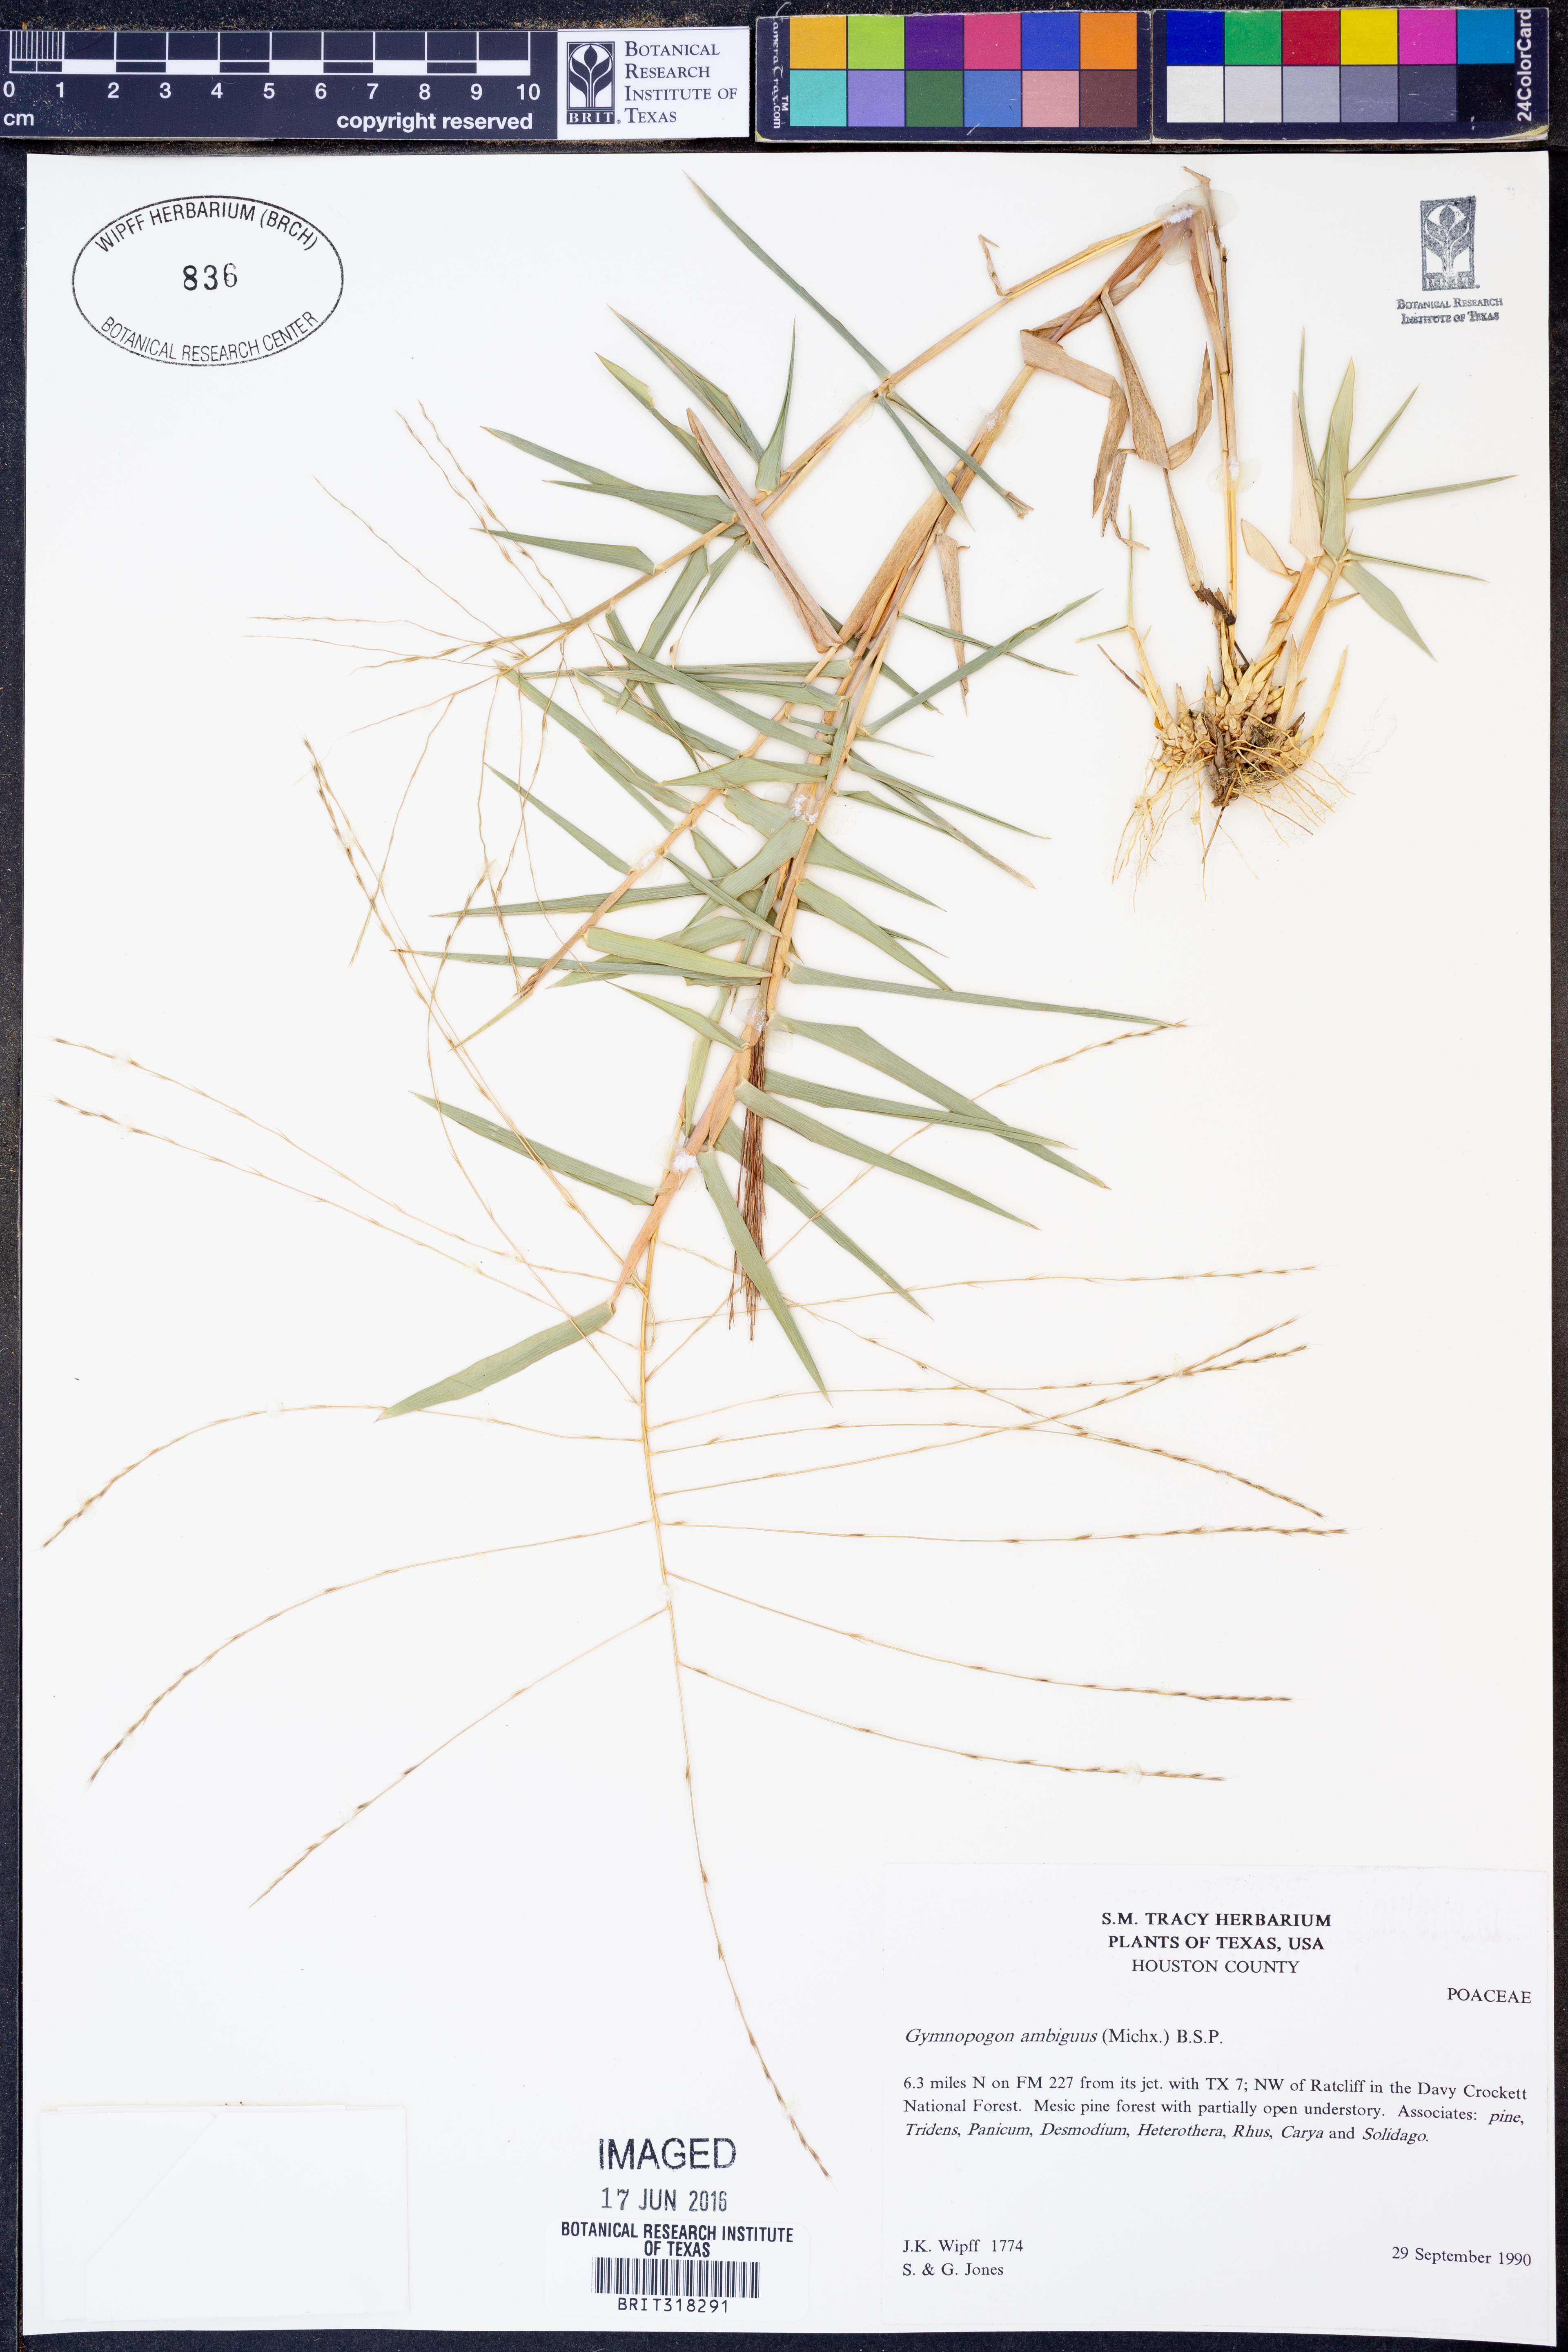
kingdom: Plantae
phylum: Tracheophyta
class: Liliopsida
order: Poales
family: Poaceae
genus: Gymnopogon
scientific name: Gymnopogon ambiguus
